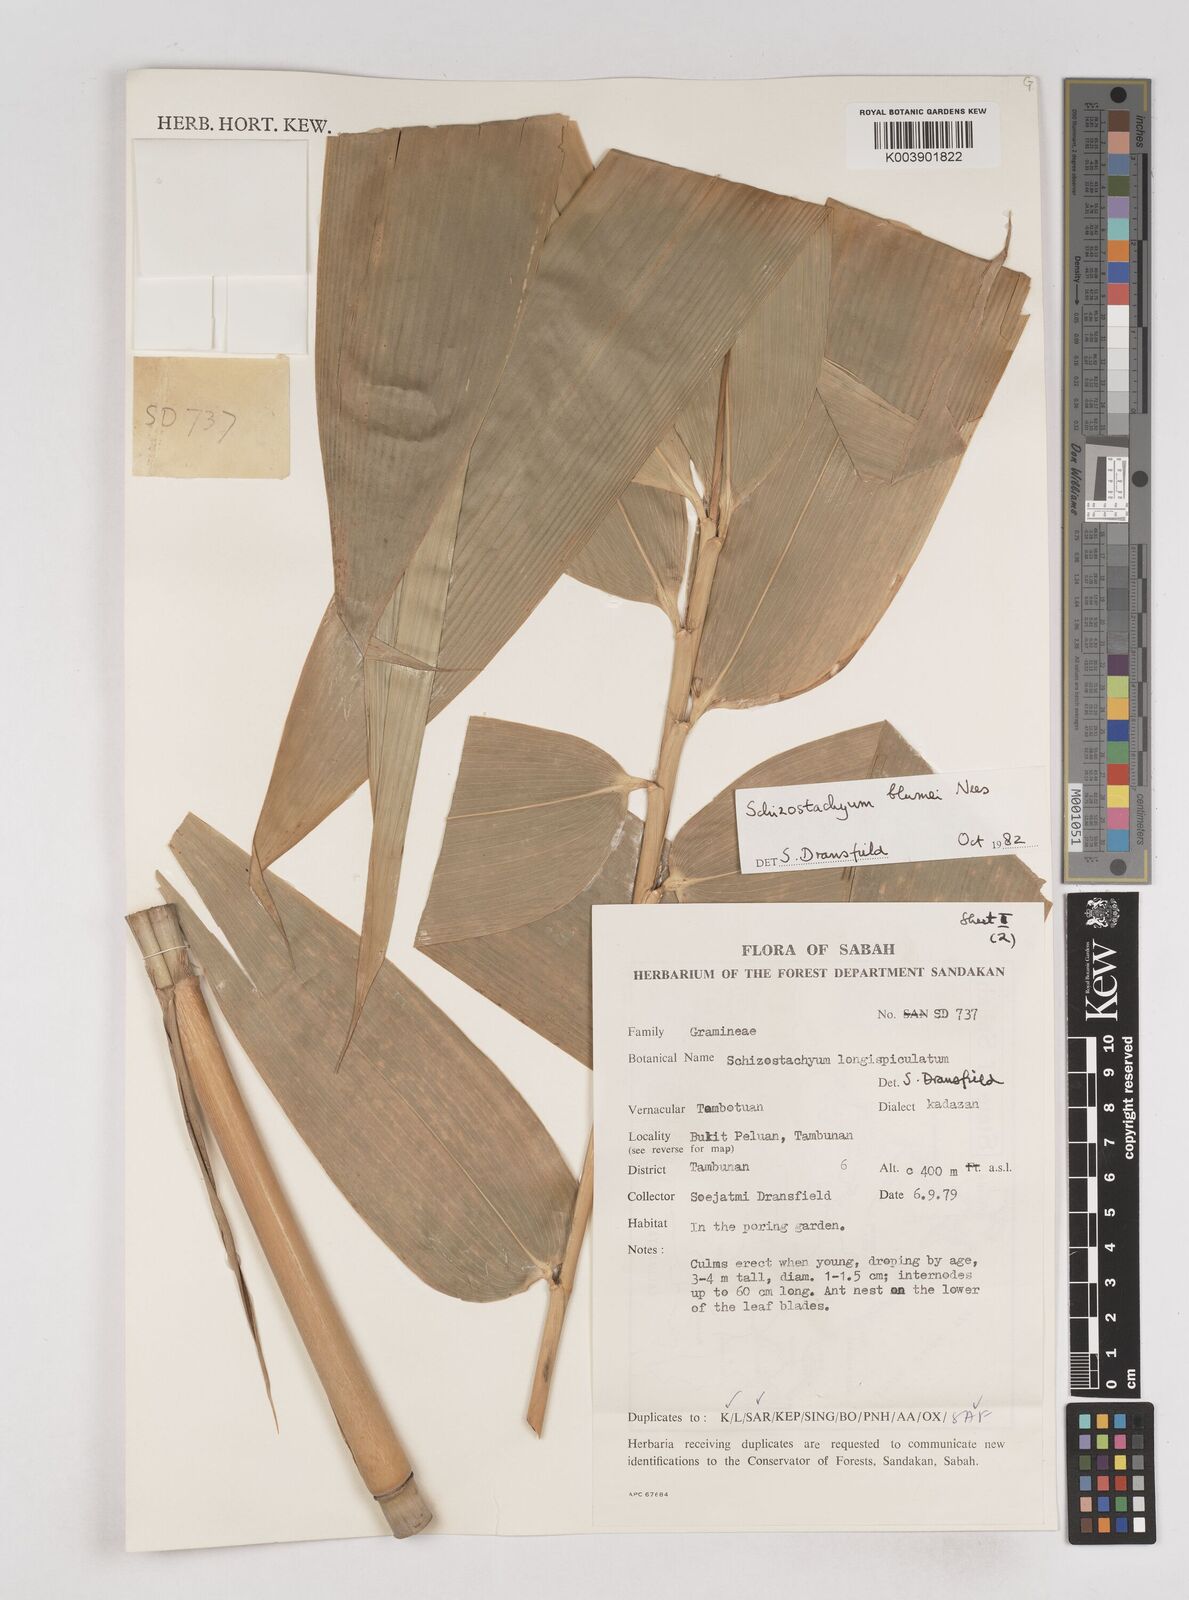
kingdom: Plantae
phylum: Tracheophyta
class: Liliopsida
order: Poales
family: Poaceae
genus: Schizostachyum
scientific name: Schizostachyum blumei
